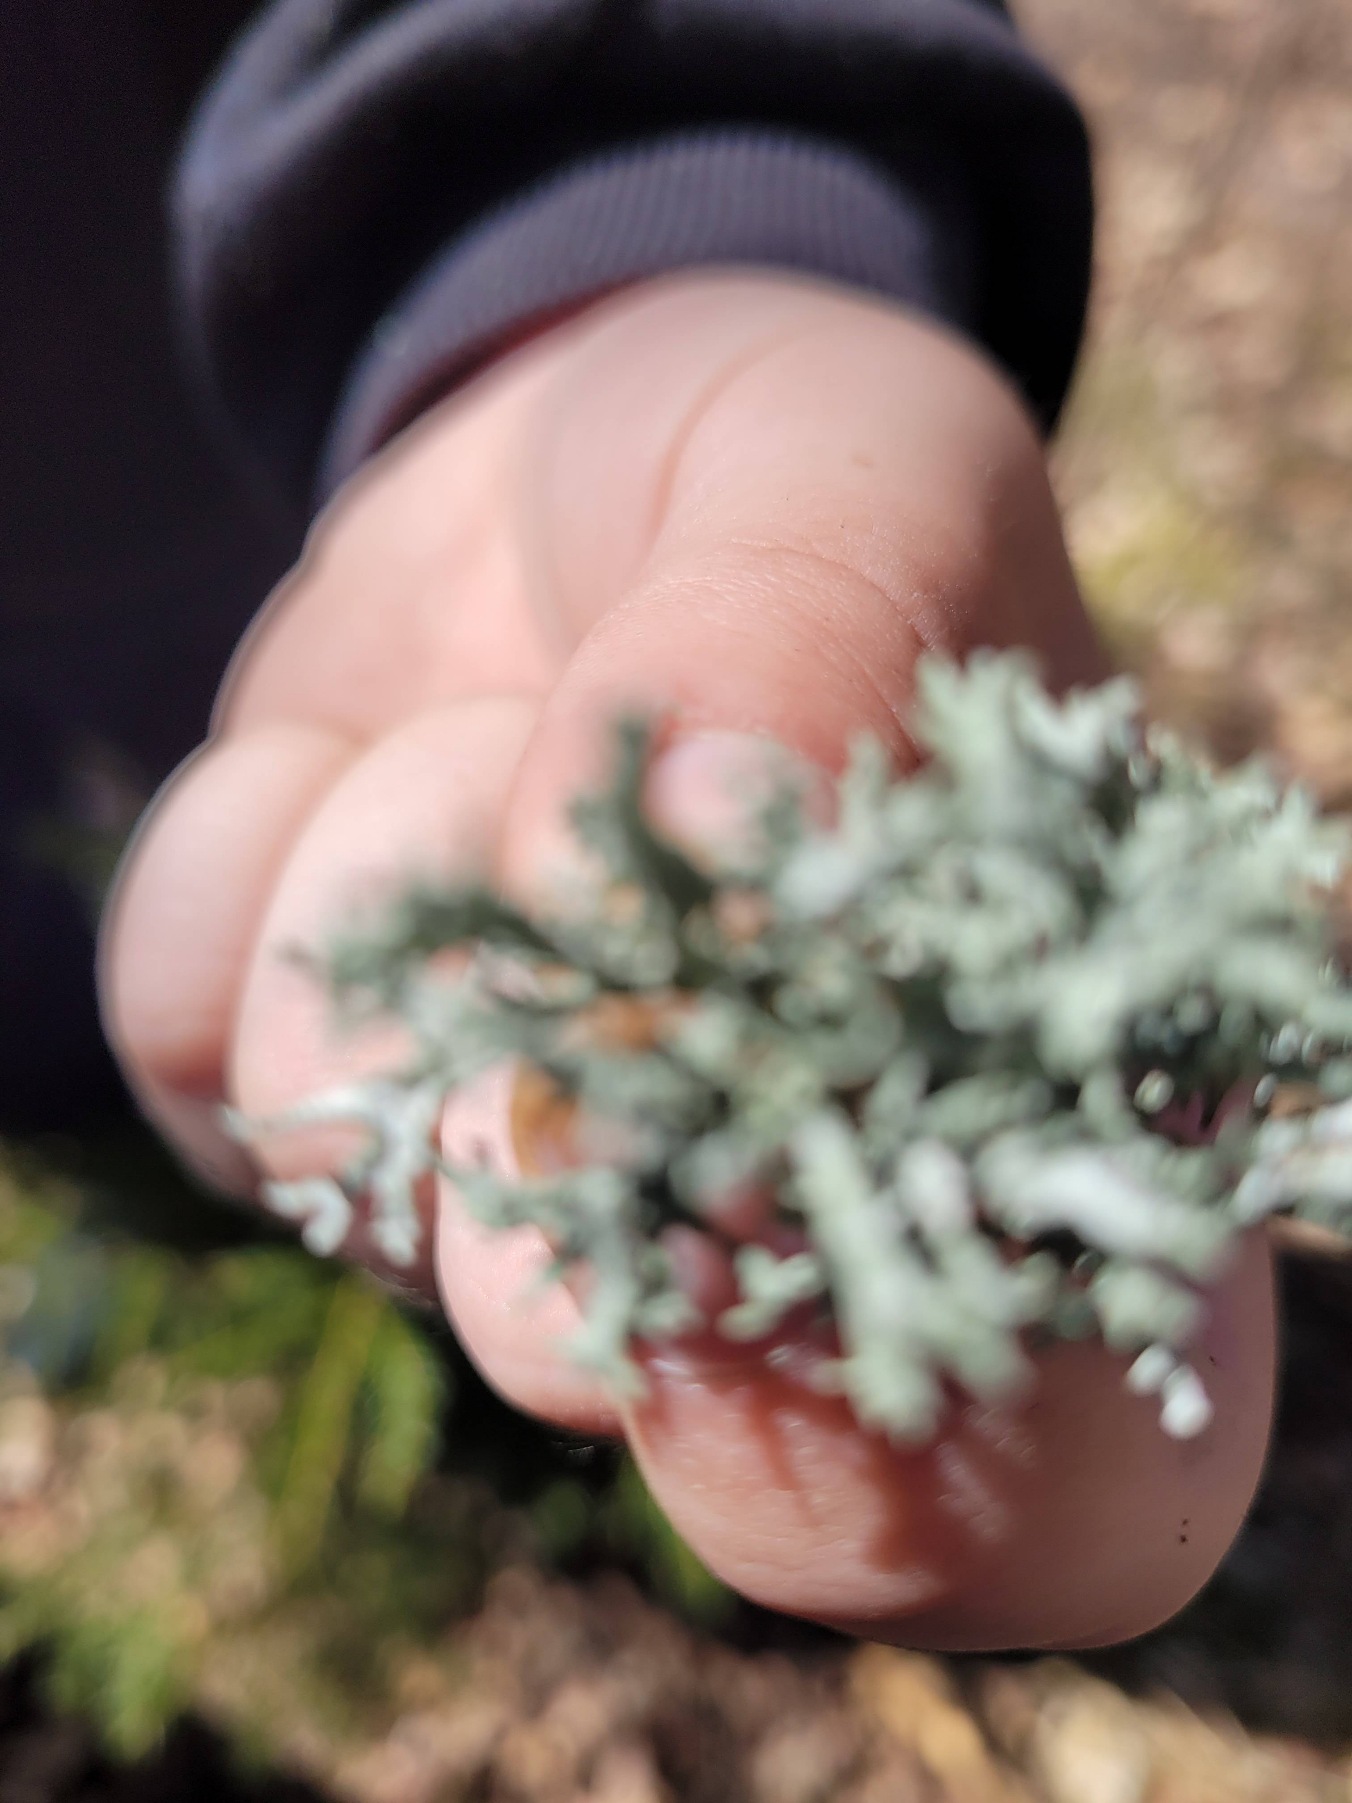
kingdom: Fungi
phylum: Ascomycota
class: Lecanoromycetes
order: Lecanorales
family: Ramalinaceae
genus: Ramalina
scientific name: Ramalina farinacea
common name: Melet grenlav
